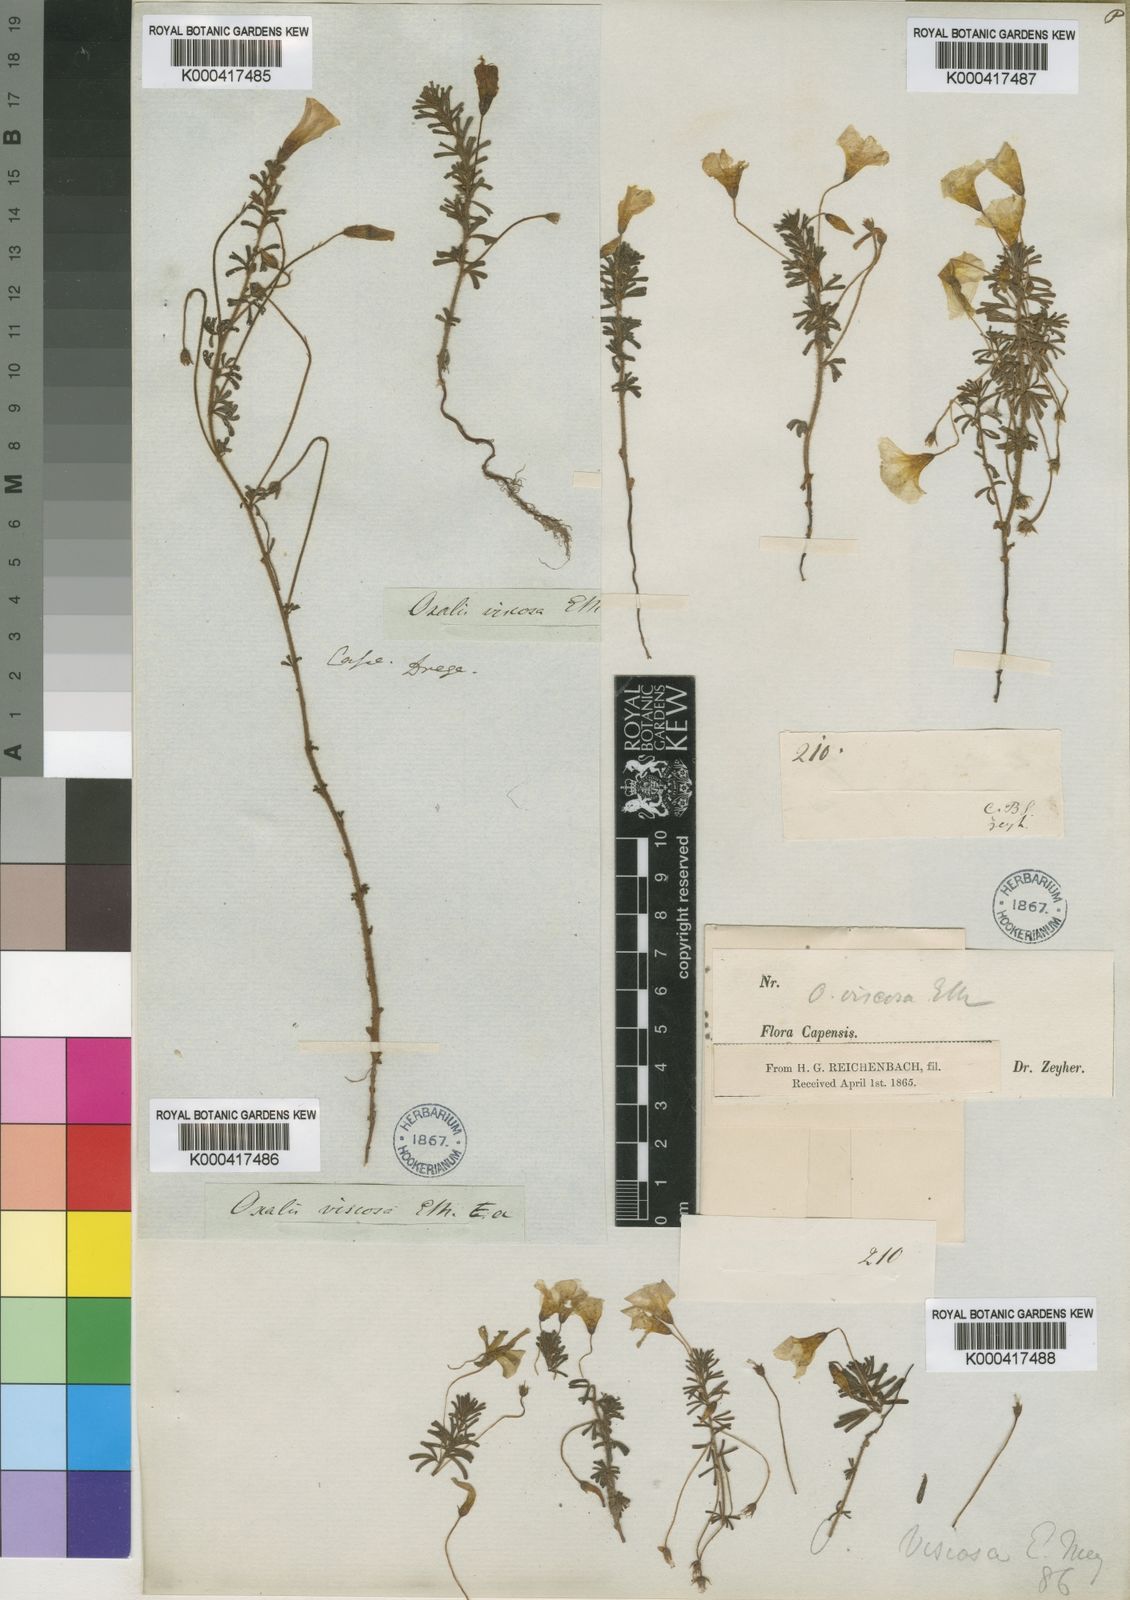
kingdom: Plantae
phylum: Tracheophyta
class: Magnoliopsida
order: Oxalidales
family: Oxalidaceae
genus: Oxalis
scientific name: Oxalis viscosa
